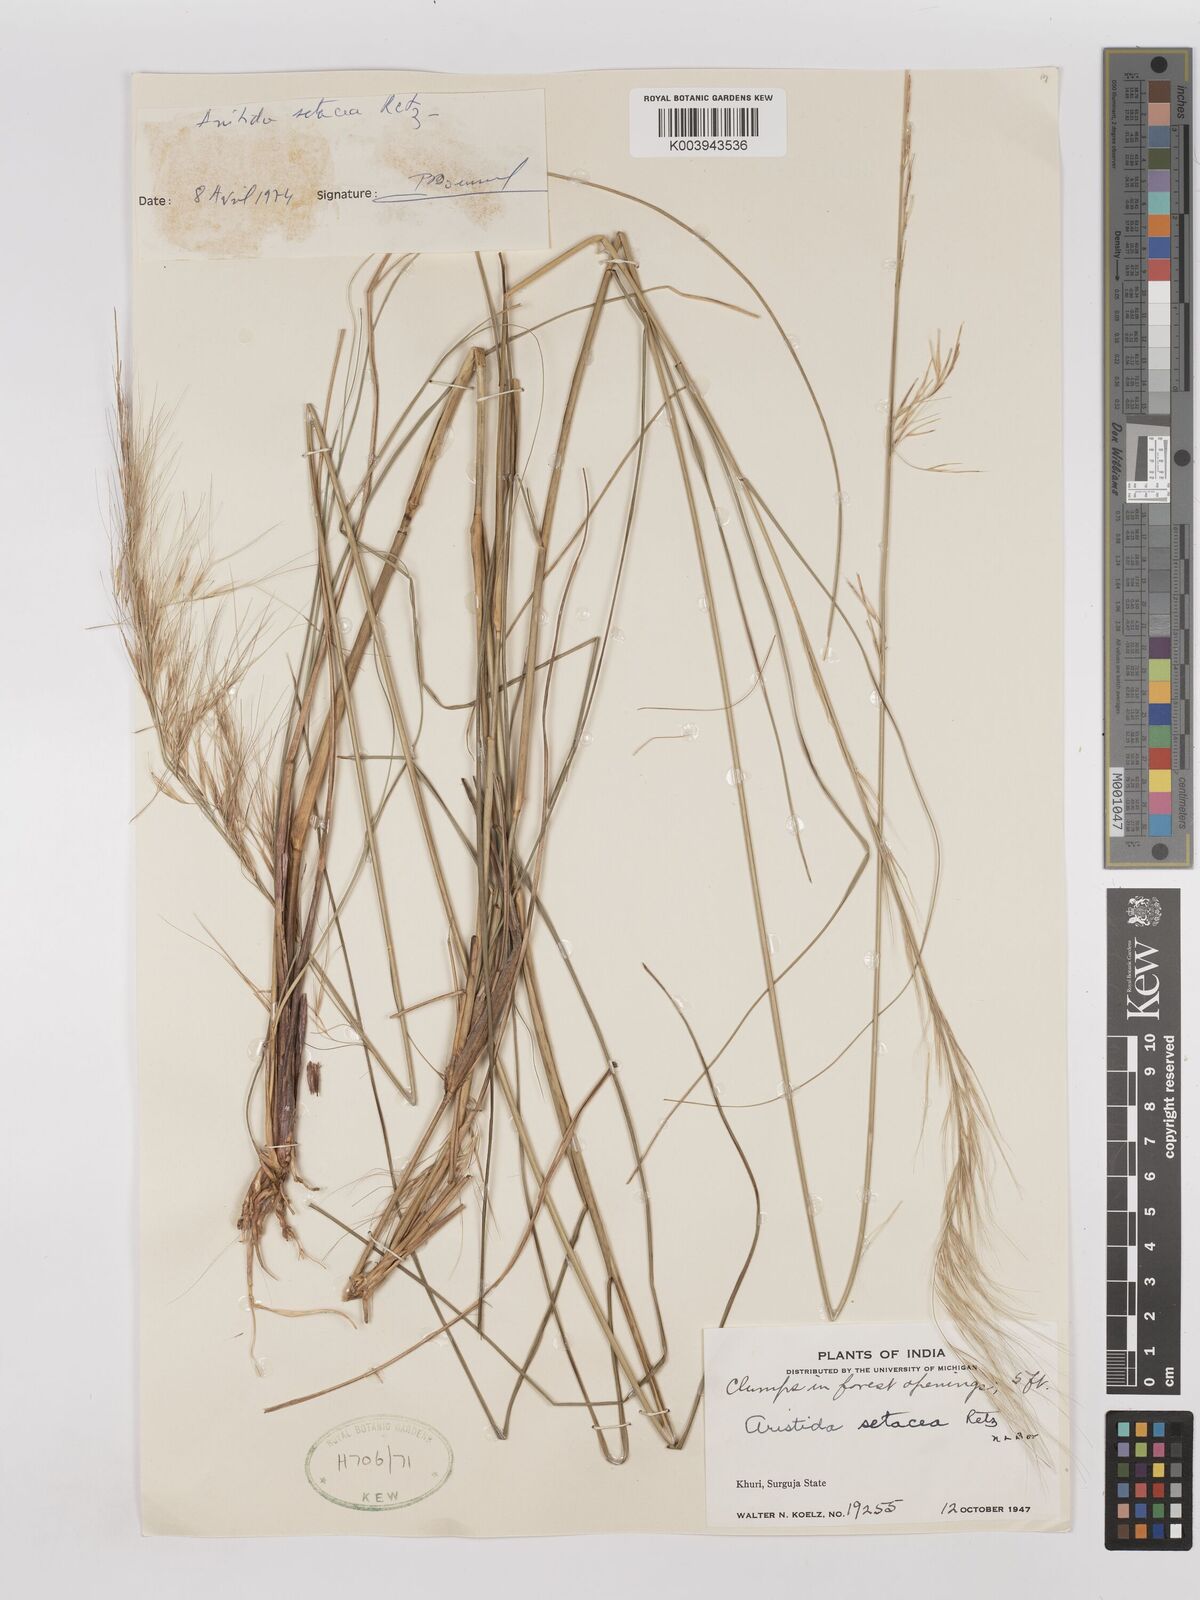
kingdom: Plantae
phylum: Tracheophyta
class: Liliopsida
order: Poales
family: Poaceae
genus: Aristida
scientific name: Aristida setacea
